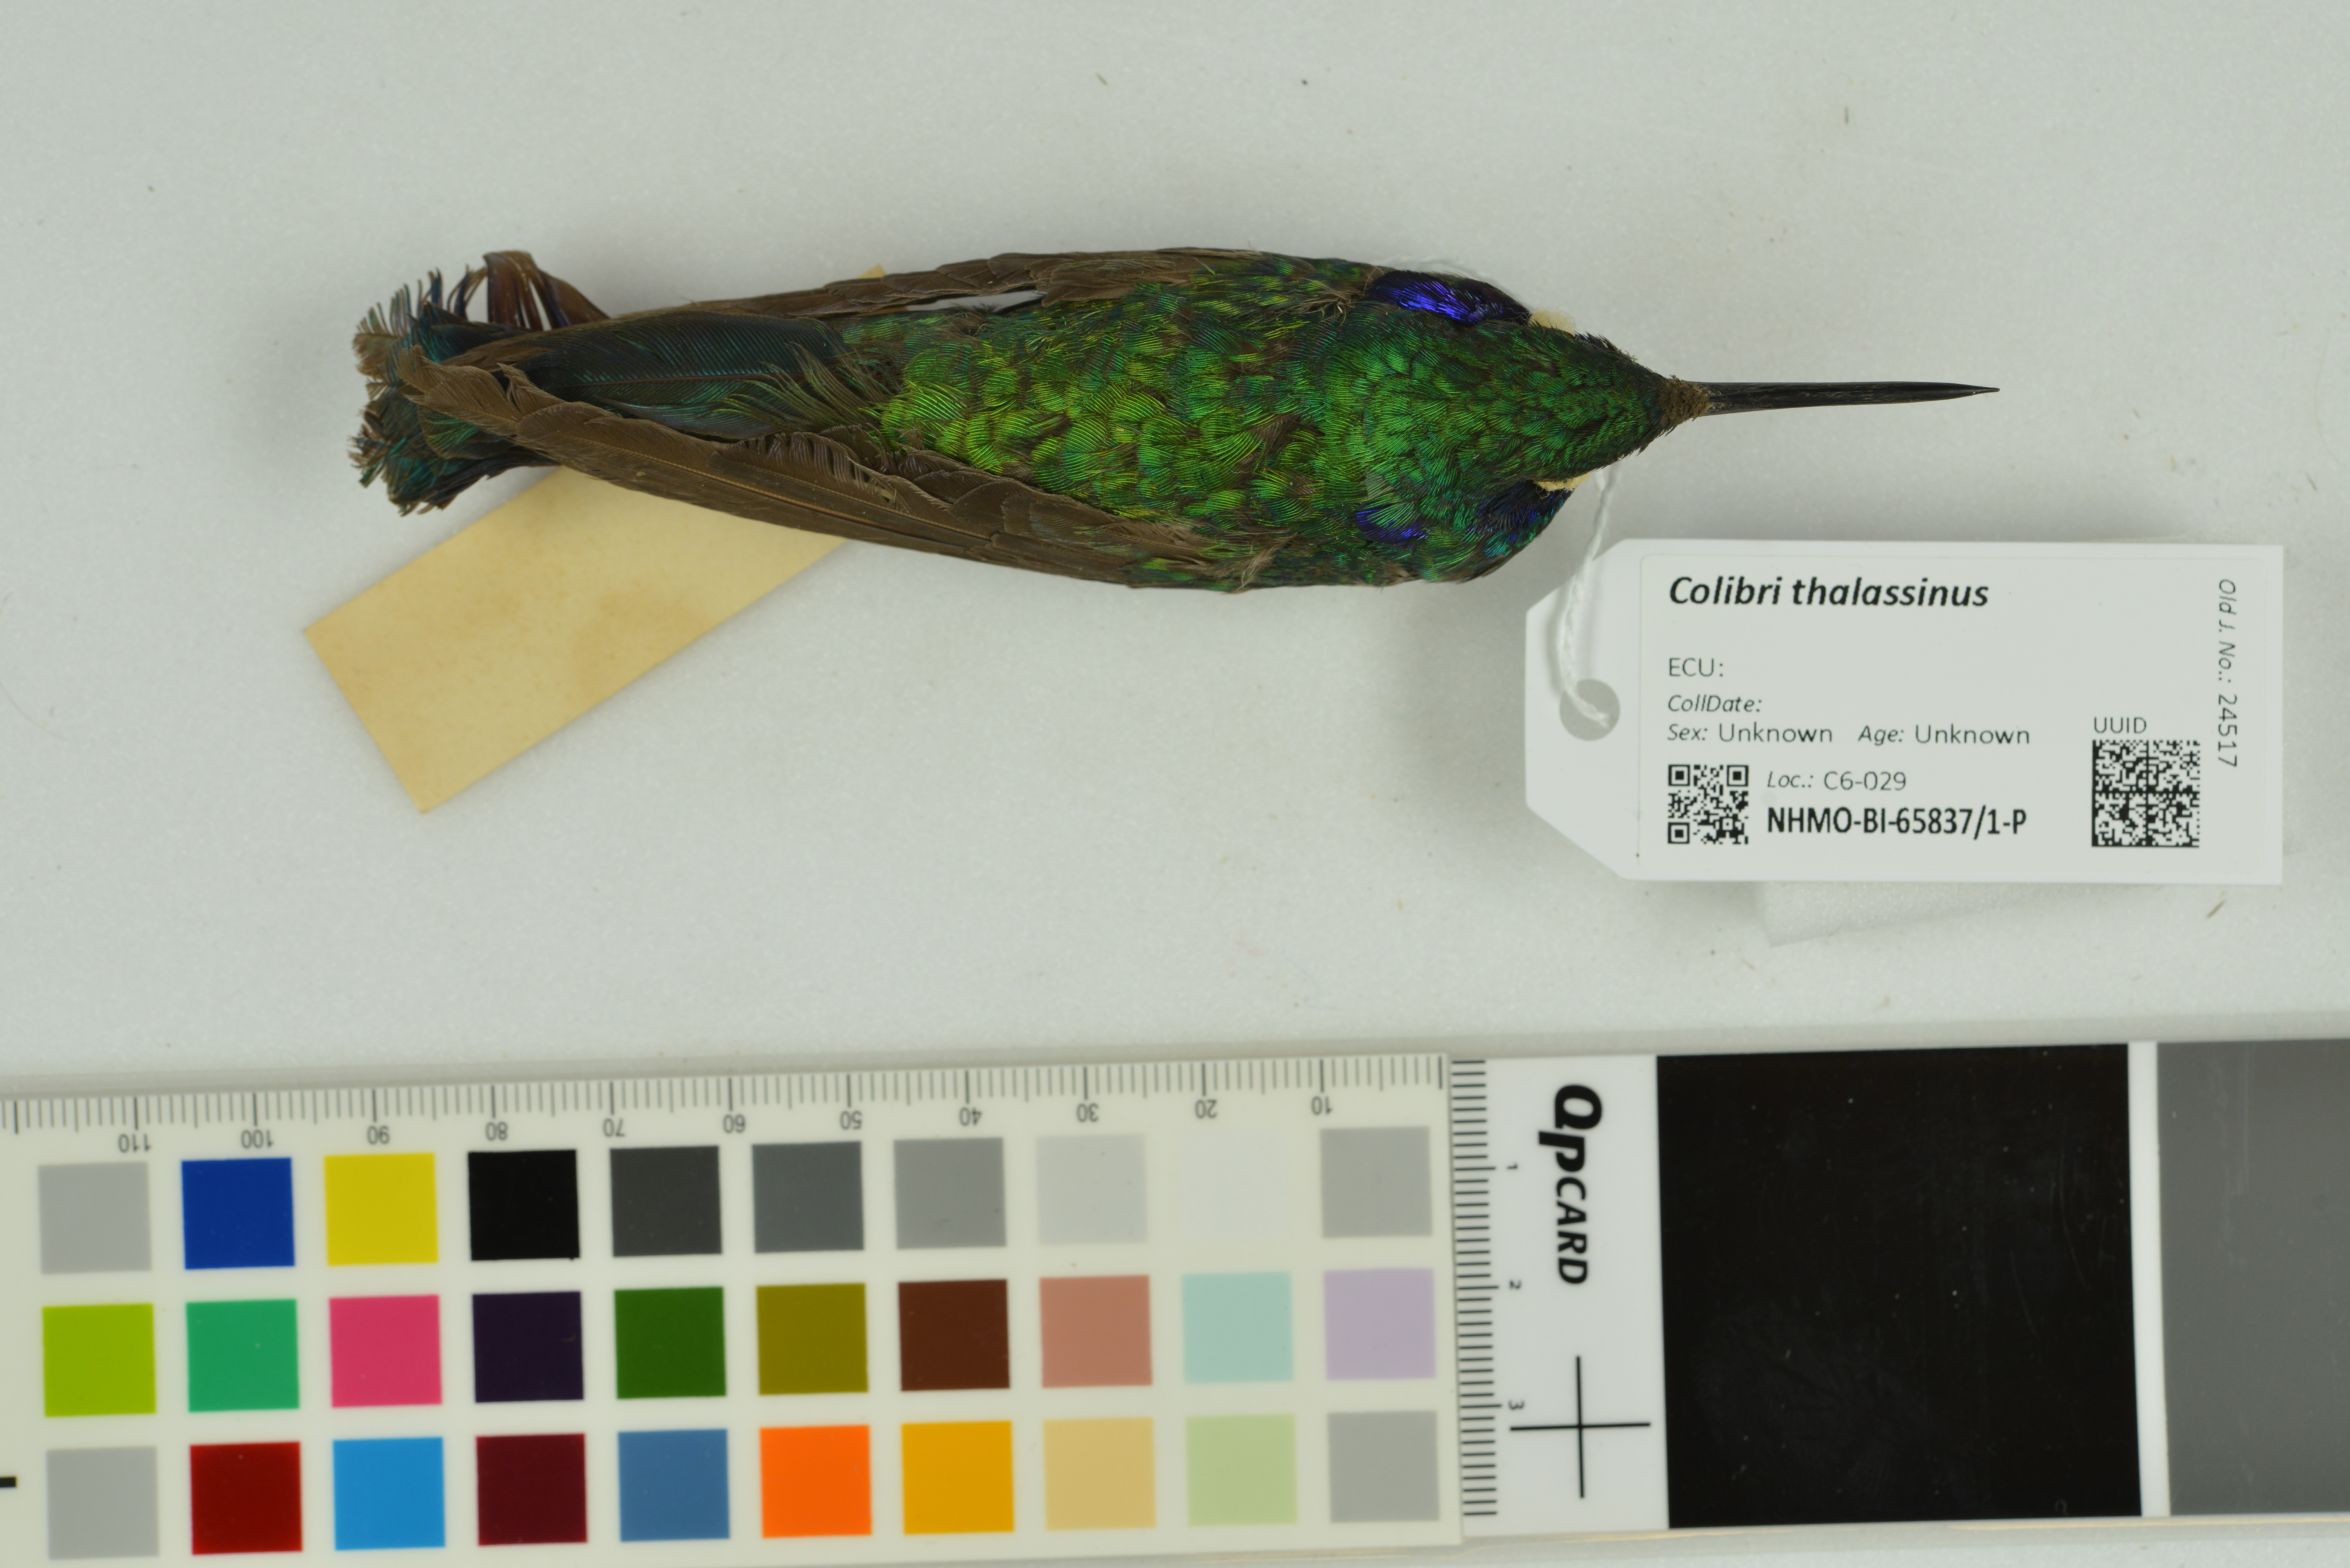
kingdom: Animalia
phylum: Chordata
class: Aves
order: Apodiformes
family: Trochilidae
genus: Colibri
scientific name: Colibri thalassinus
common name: Green violetear
